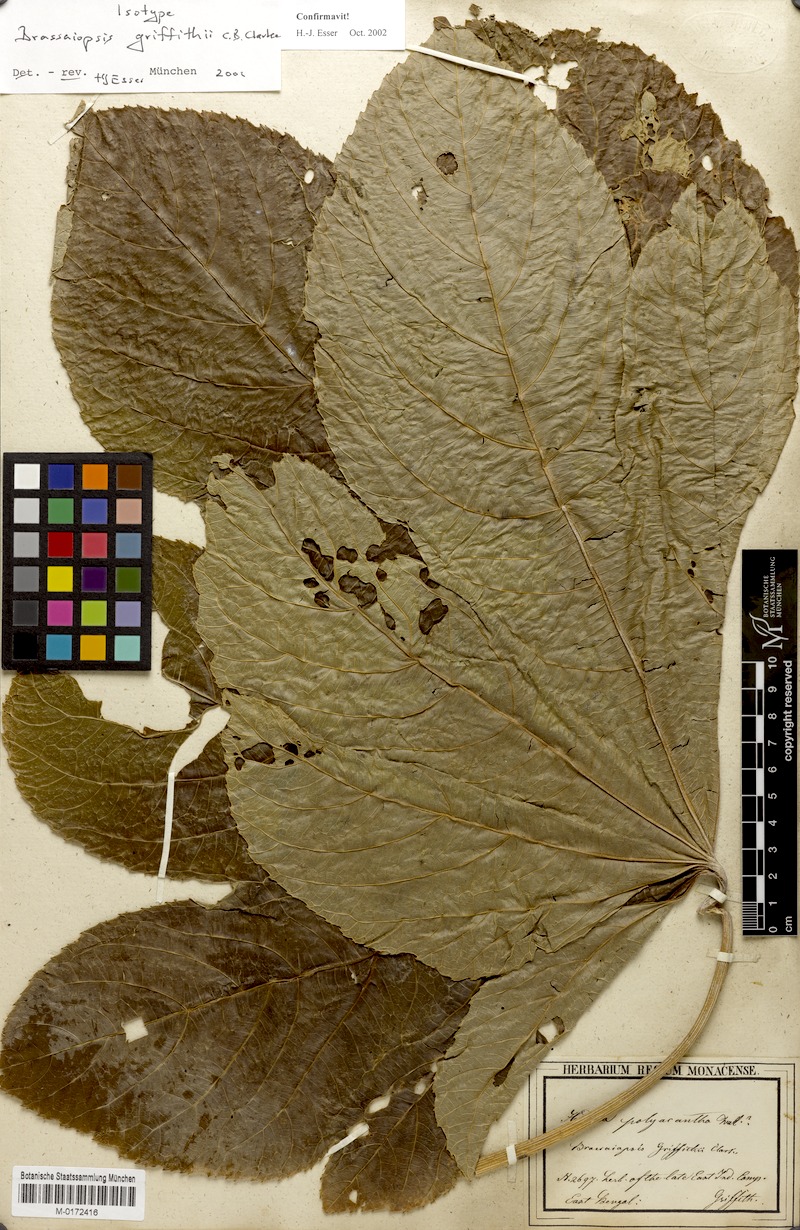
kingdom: Plantae
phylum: Tracheophyta
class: Magnoliopsida
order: Apiales
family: Araliaceae
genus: Brassaiopsis
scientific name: Brassaiopsis griffithii
